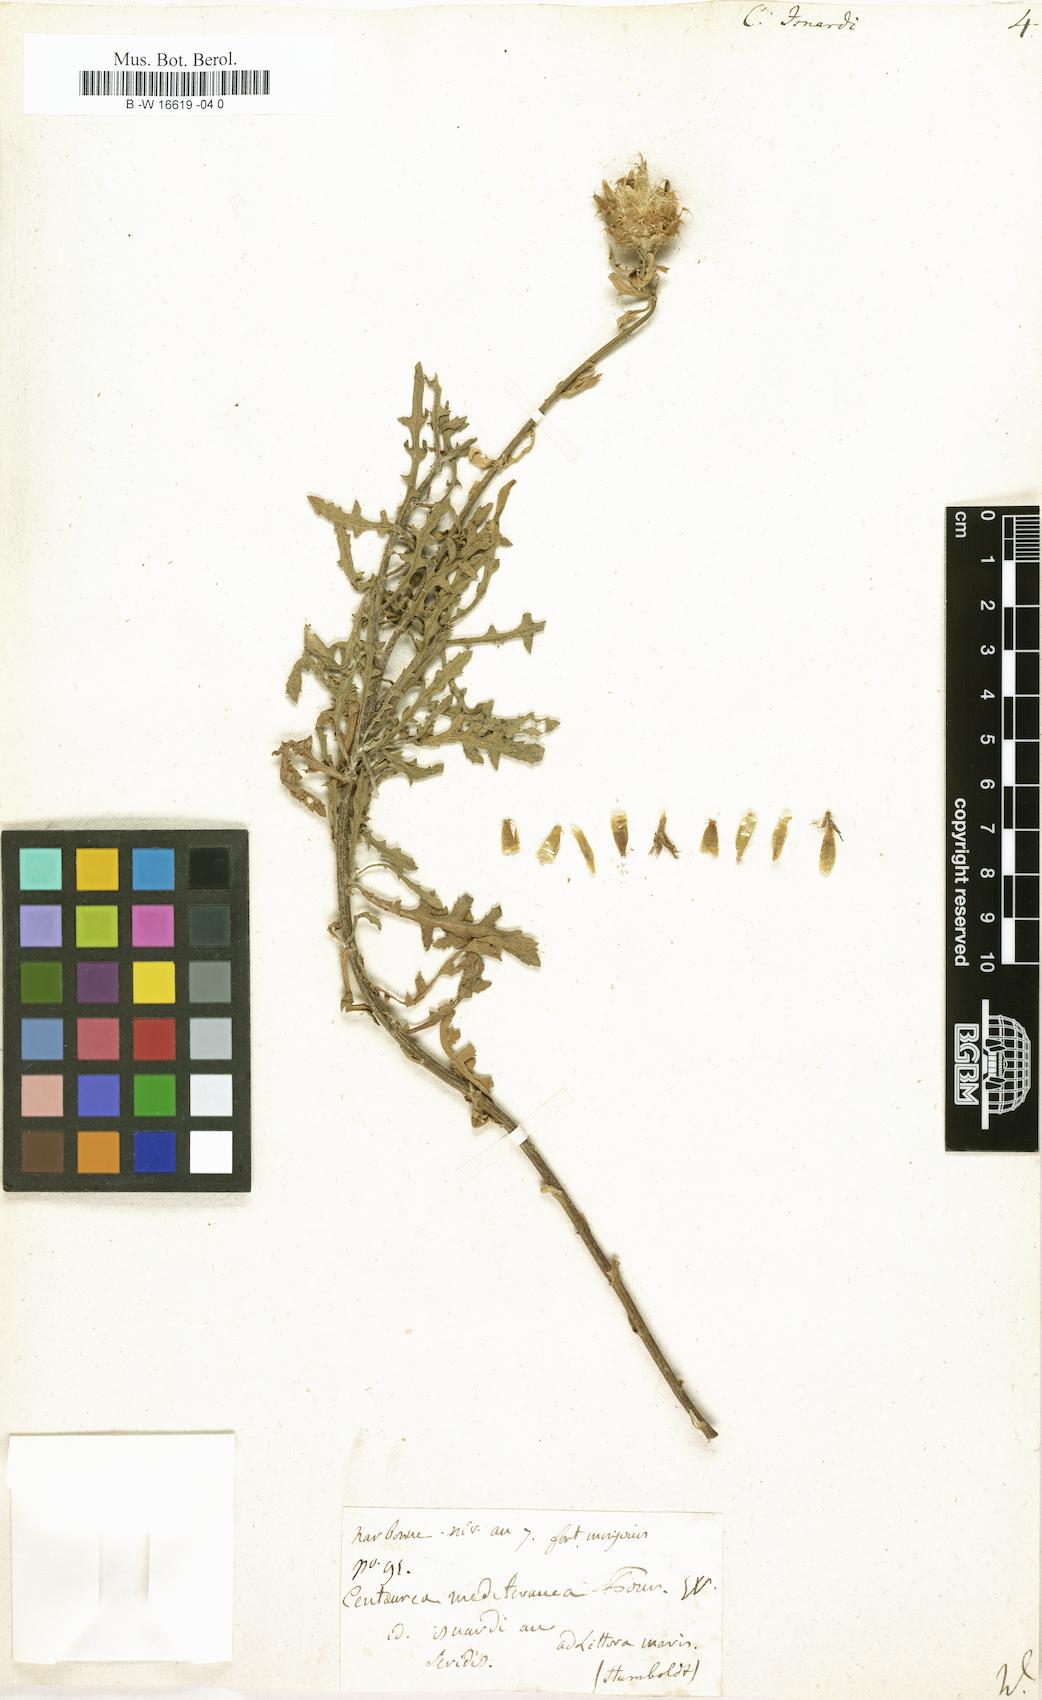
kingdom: Plantae
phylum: Tracheophyta
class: Magnoliopsida
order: Asterales
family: Asteraceae
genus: Centaurea
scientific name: Centaurea aspera
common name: Rough star-thistle
